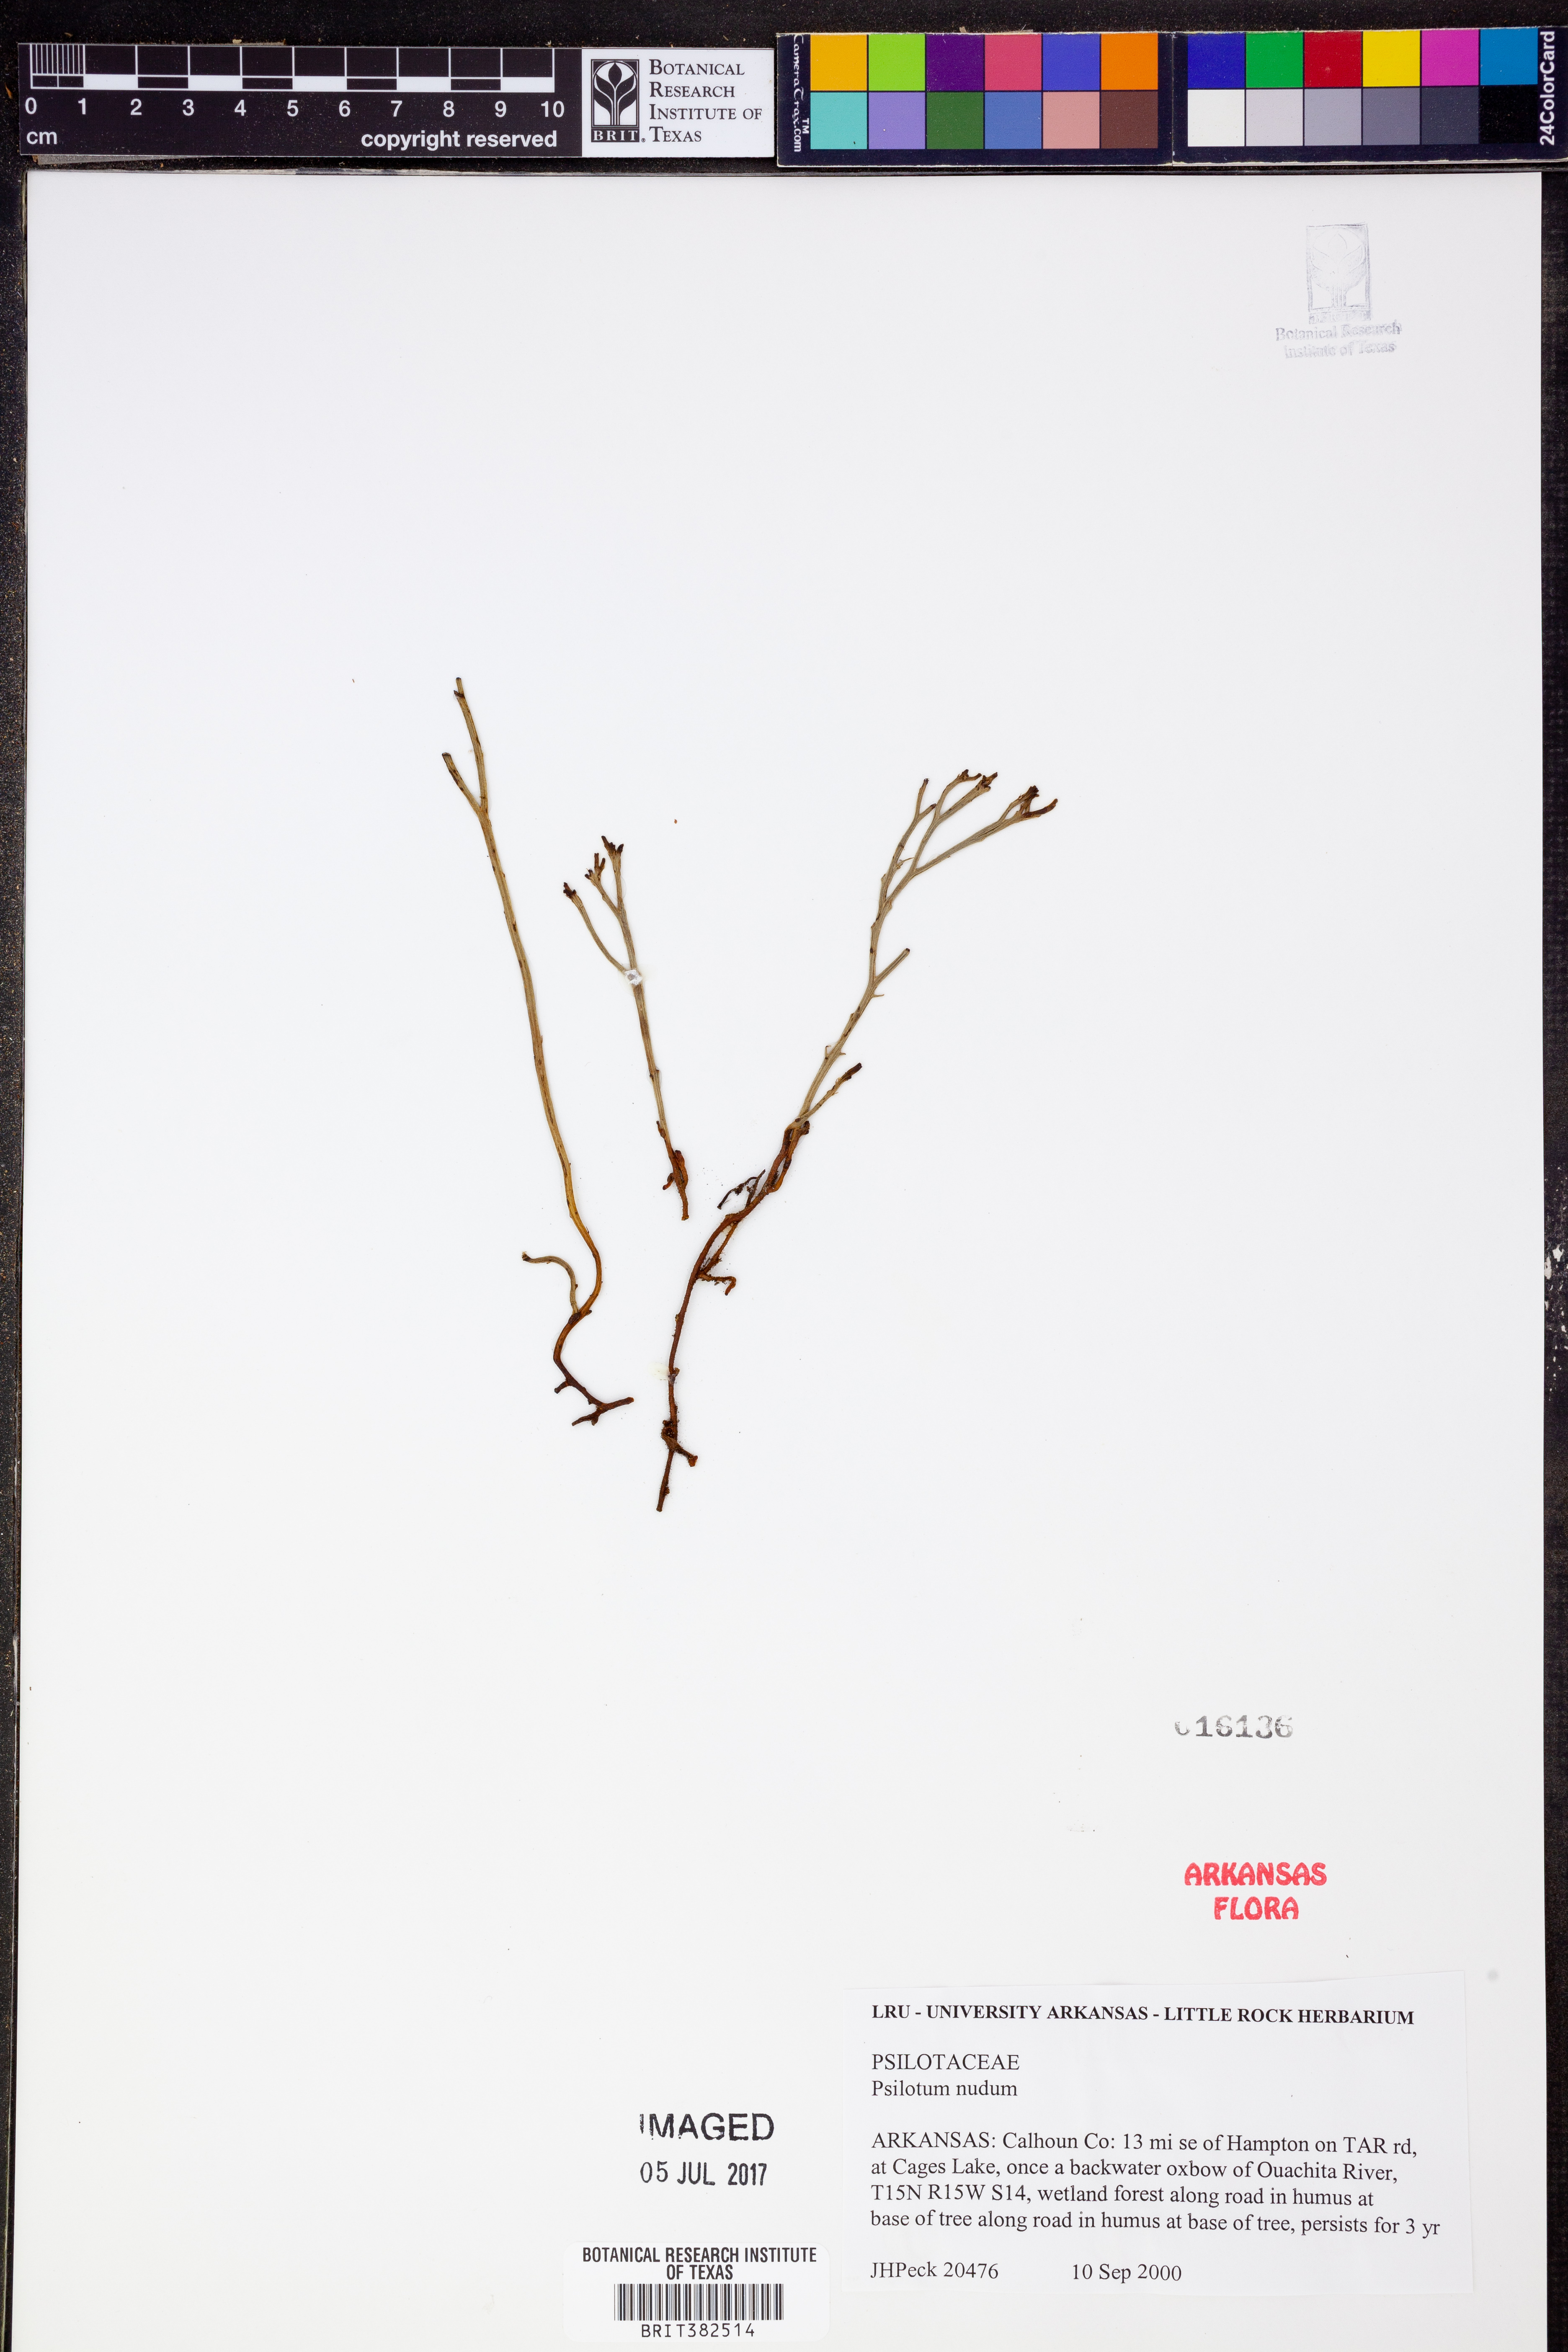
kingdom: Plantae
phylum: Tracheophyta
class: Polypodiopsida
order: Psilotales
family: Psilotaceae
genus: Psilotum
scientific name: Psilotum nudum
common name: Skeleton fork fern
